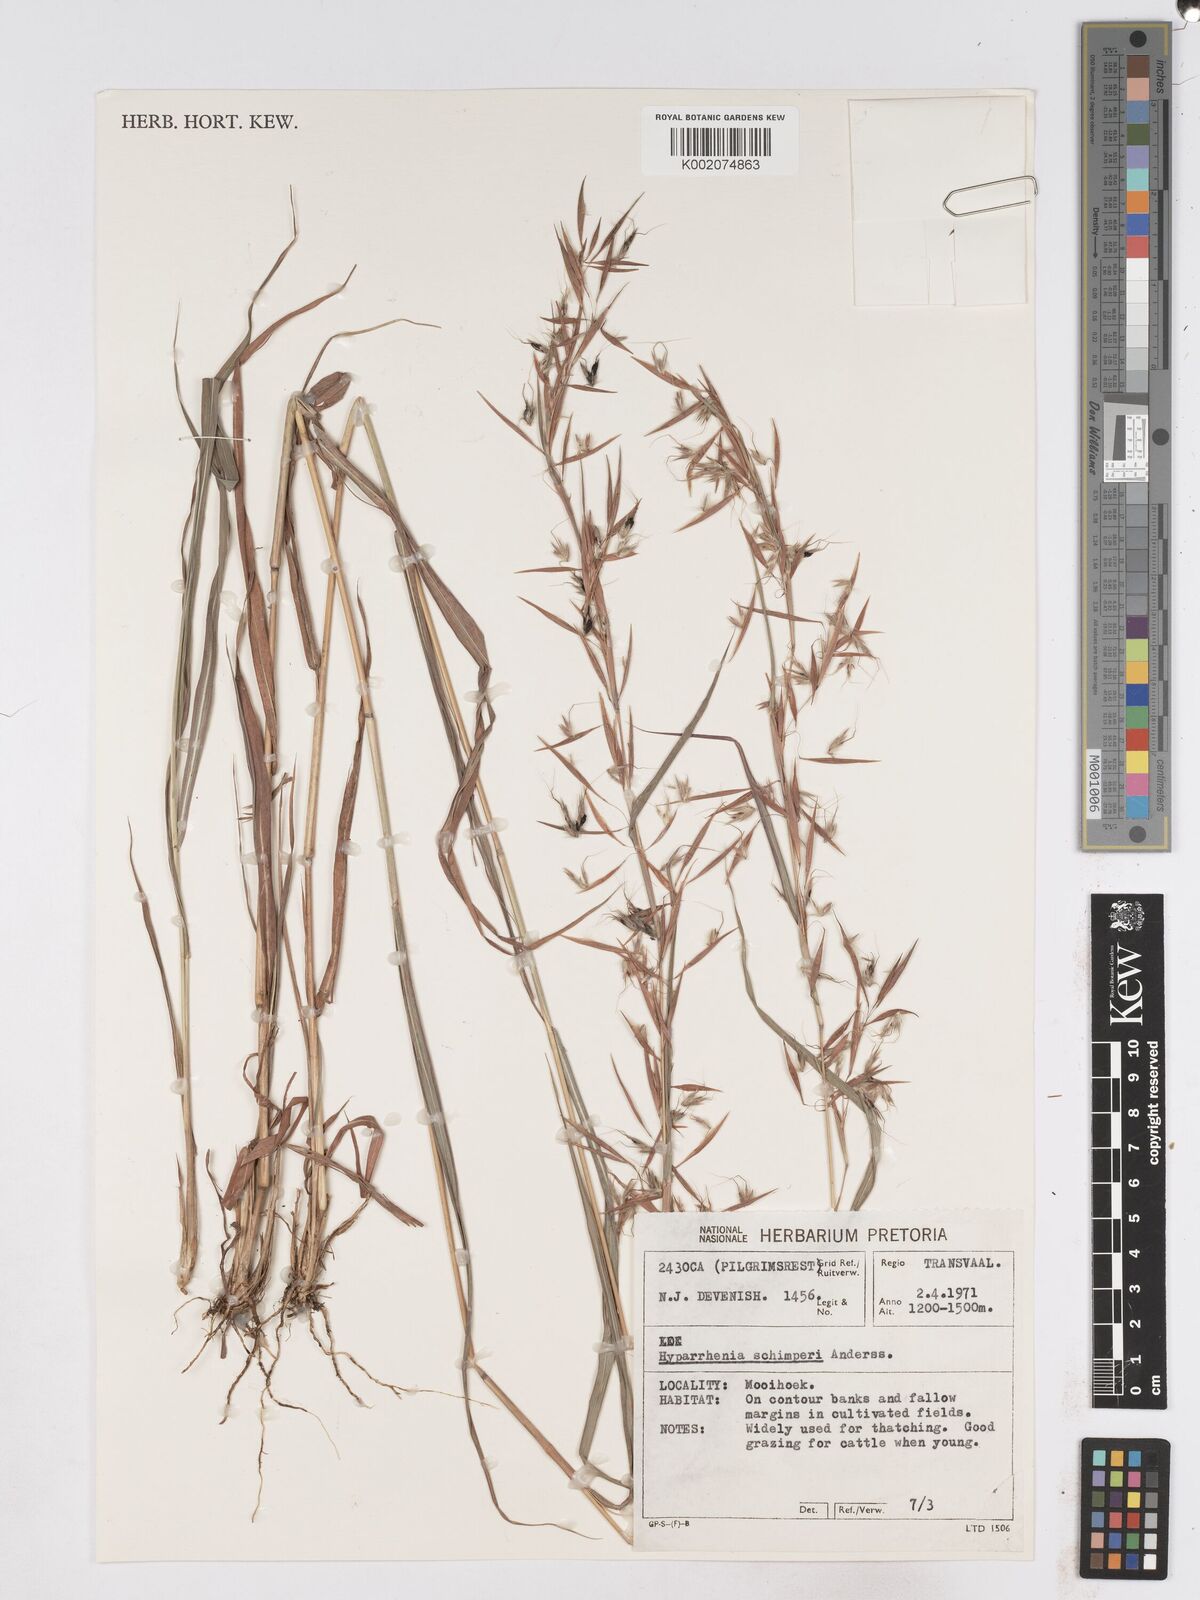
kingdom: Plantae
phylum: Tracheophyta
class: Liliopsida
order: Poales
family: Poaceae
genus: Hyparrhenia
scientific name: Hyparrhenia schimperi
